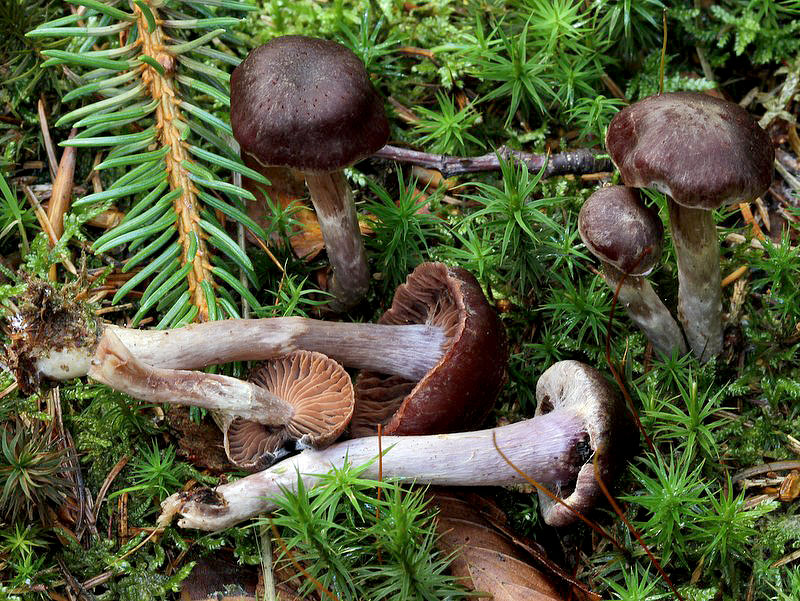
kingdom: Fungi
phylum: Basidiomycota
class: Agaricomycetes
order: Agaricales
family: Cortinariaceae
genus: Cortinarius
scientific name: Cortinarius
